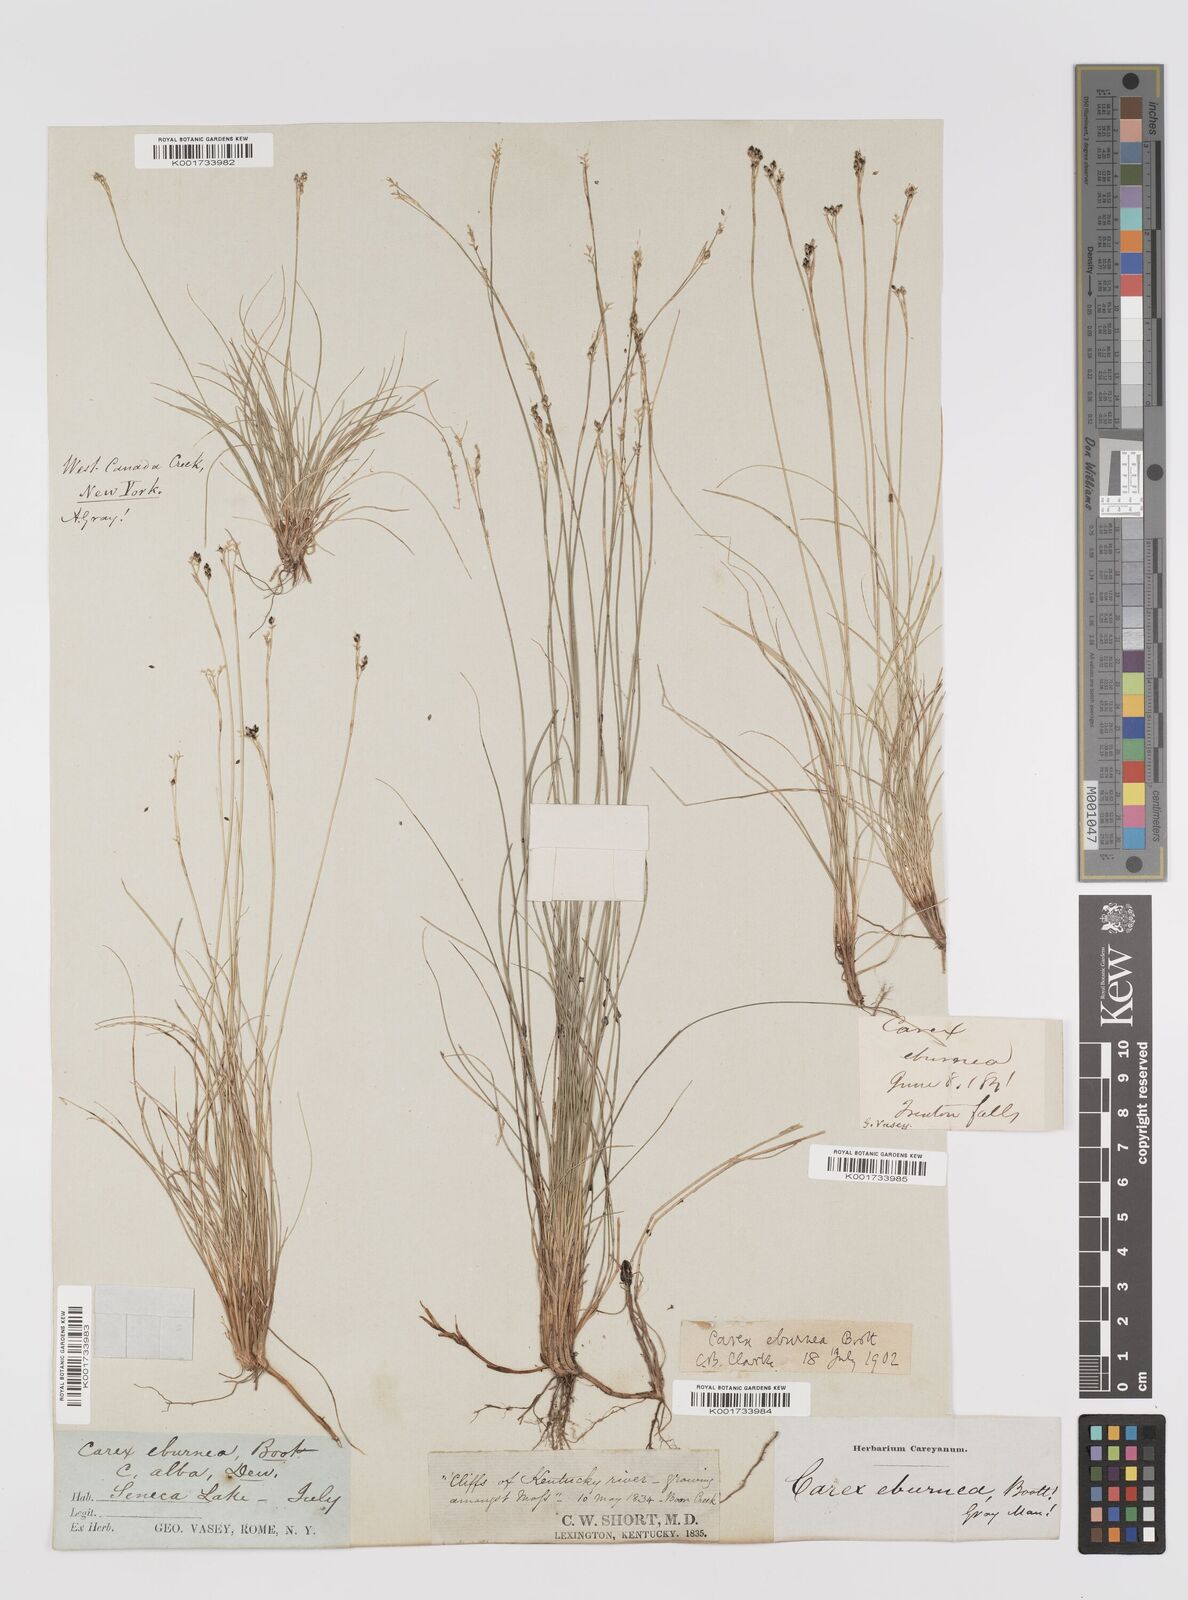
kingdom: Plantae
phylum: Tracheophyta
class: Liliopsida
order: Poales
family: Cyperaceae
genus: Carex
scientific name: Carex eburnea
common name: Bristle-leaved sedge
